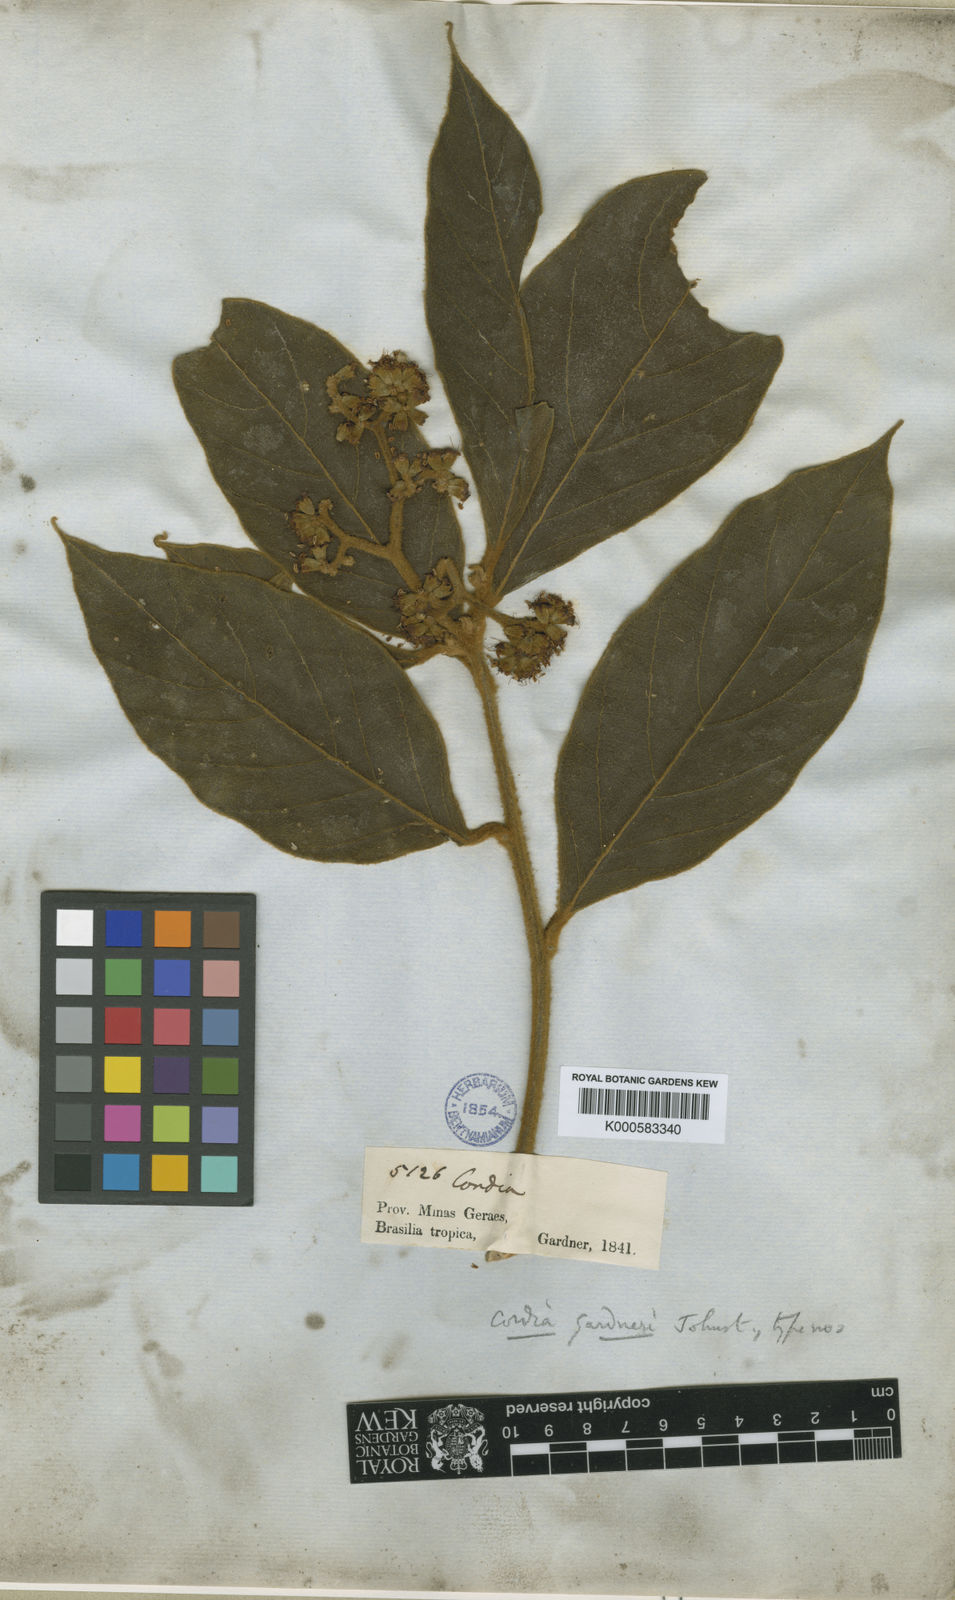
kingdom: Plantae
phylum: Tracheophyta
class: Magnoliopsida
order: Boraginales
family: Cordiaceae
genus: Cordia
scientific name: Cordia gardneri
